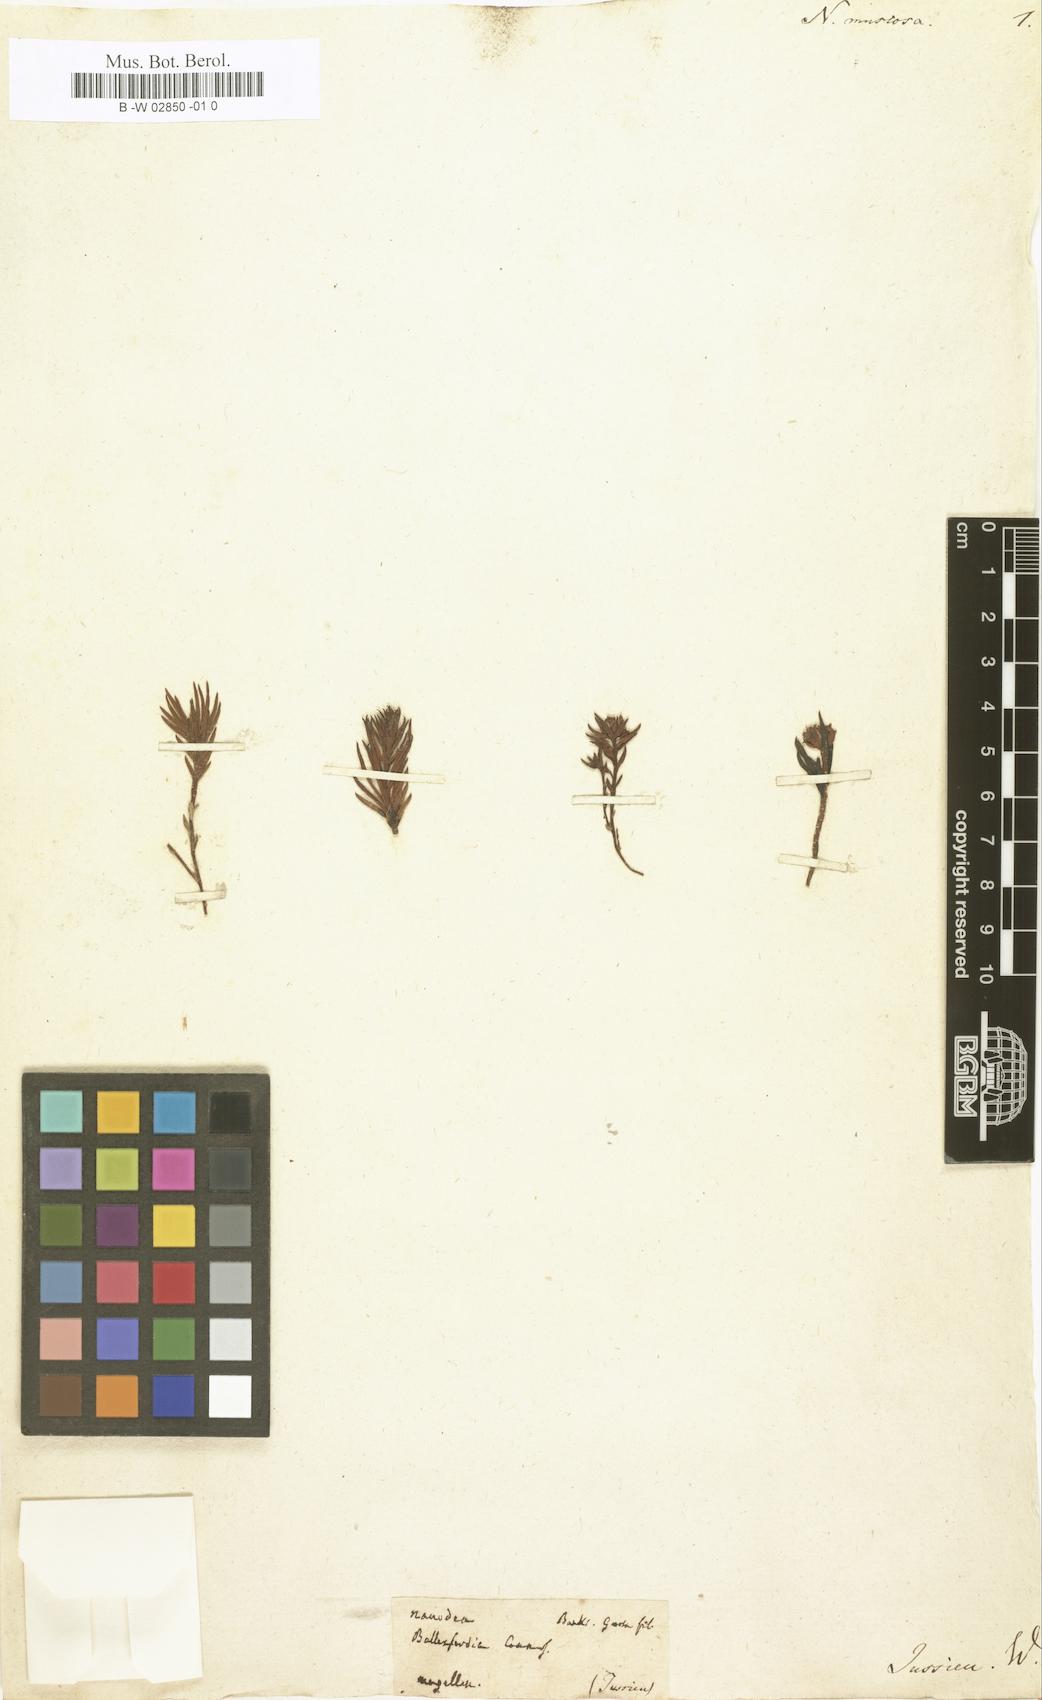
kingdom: Plantae
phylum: Tracheophyta
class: Magnoliopsida
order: Santalales
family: Nanodeaceae
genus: Nanodea
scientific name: Nanodea muscosa
